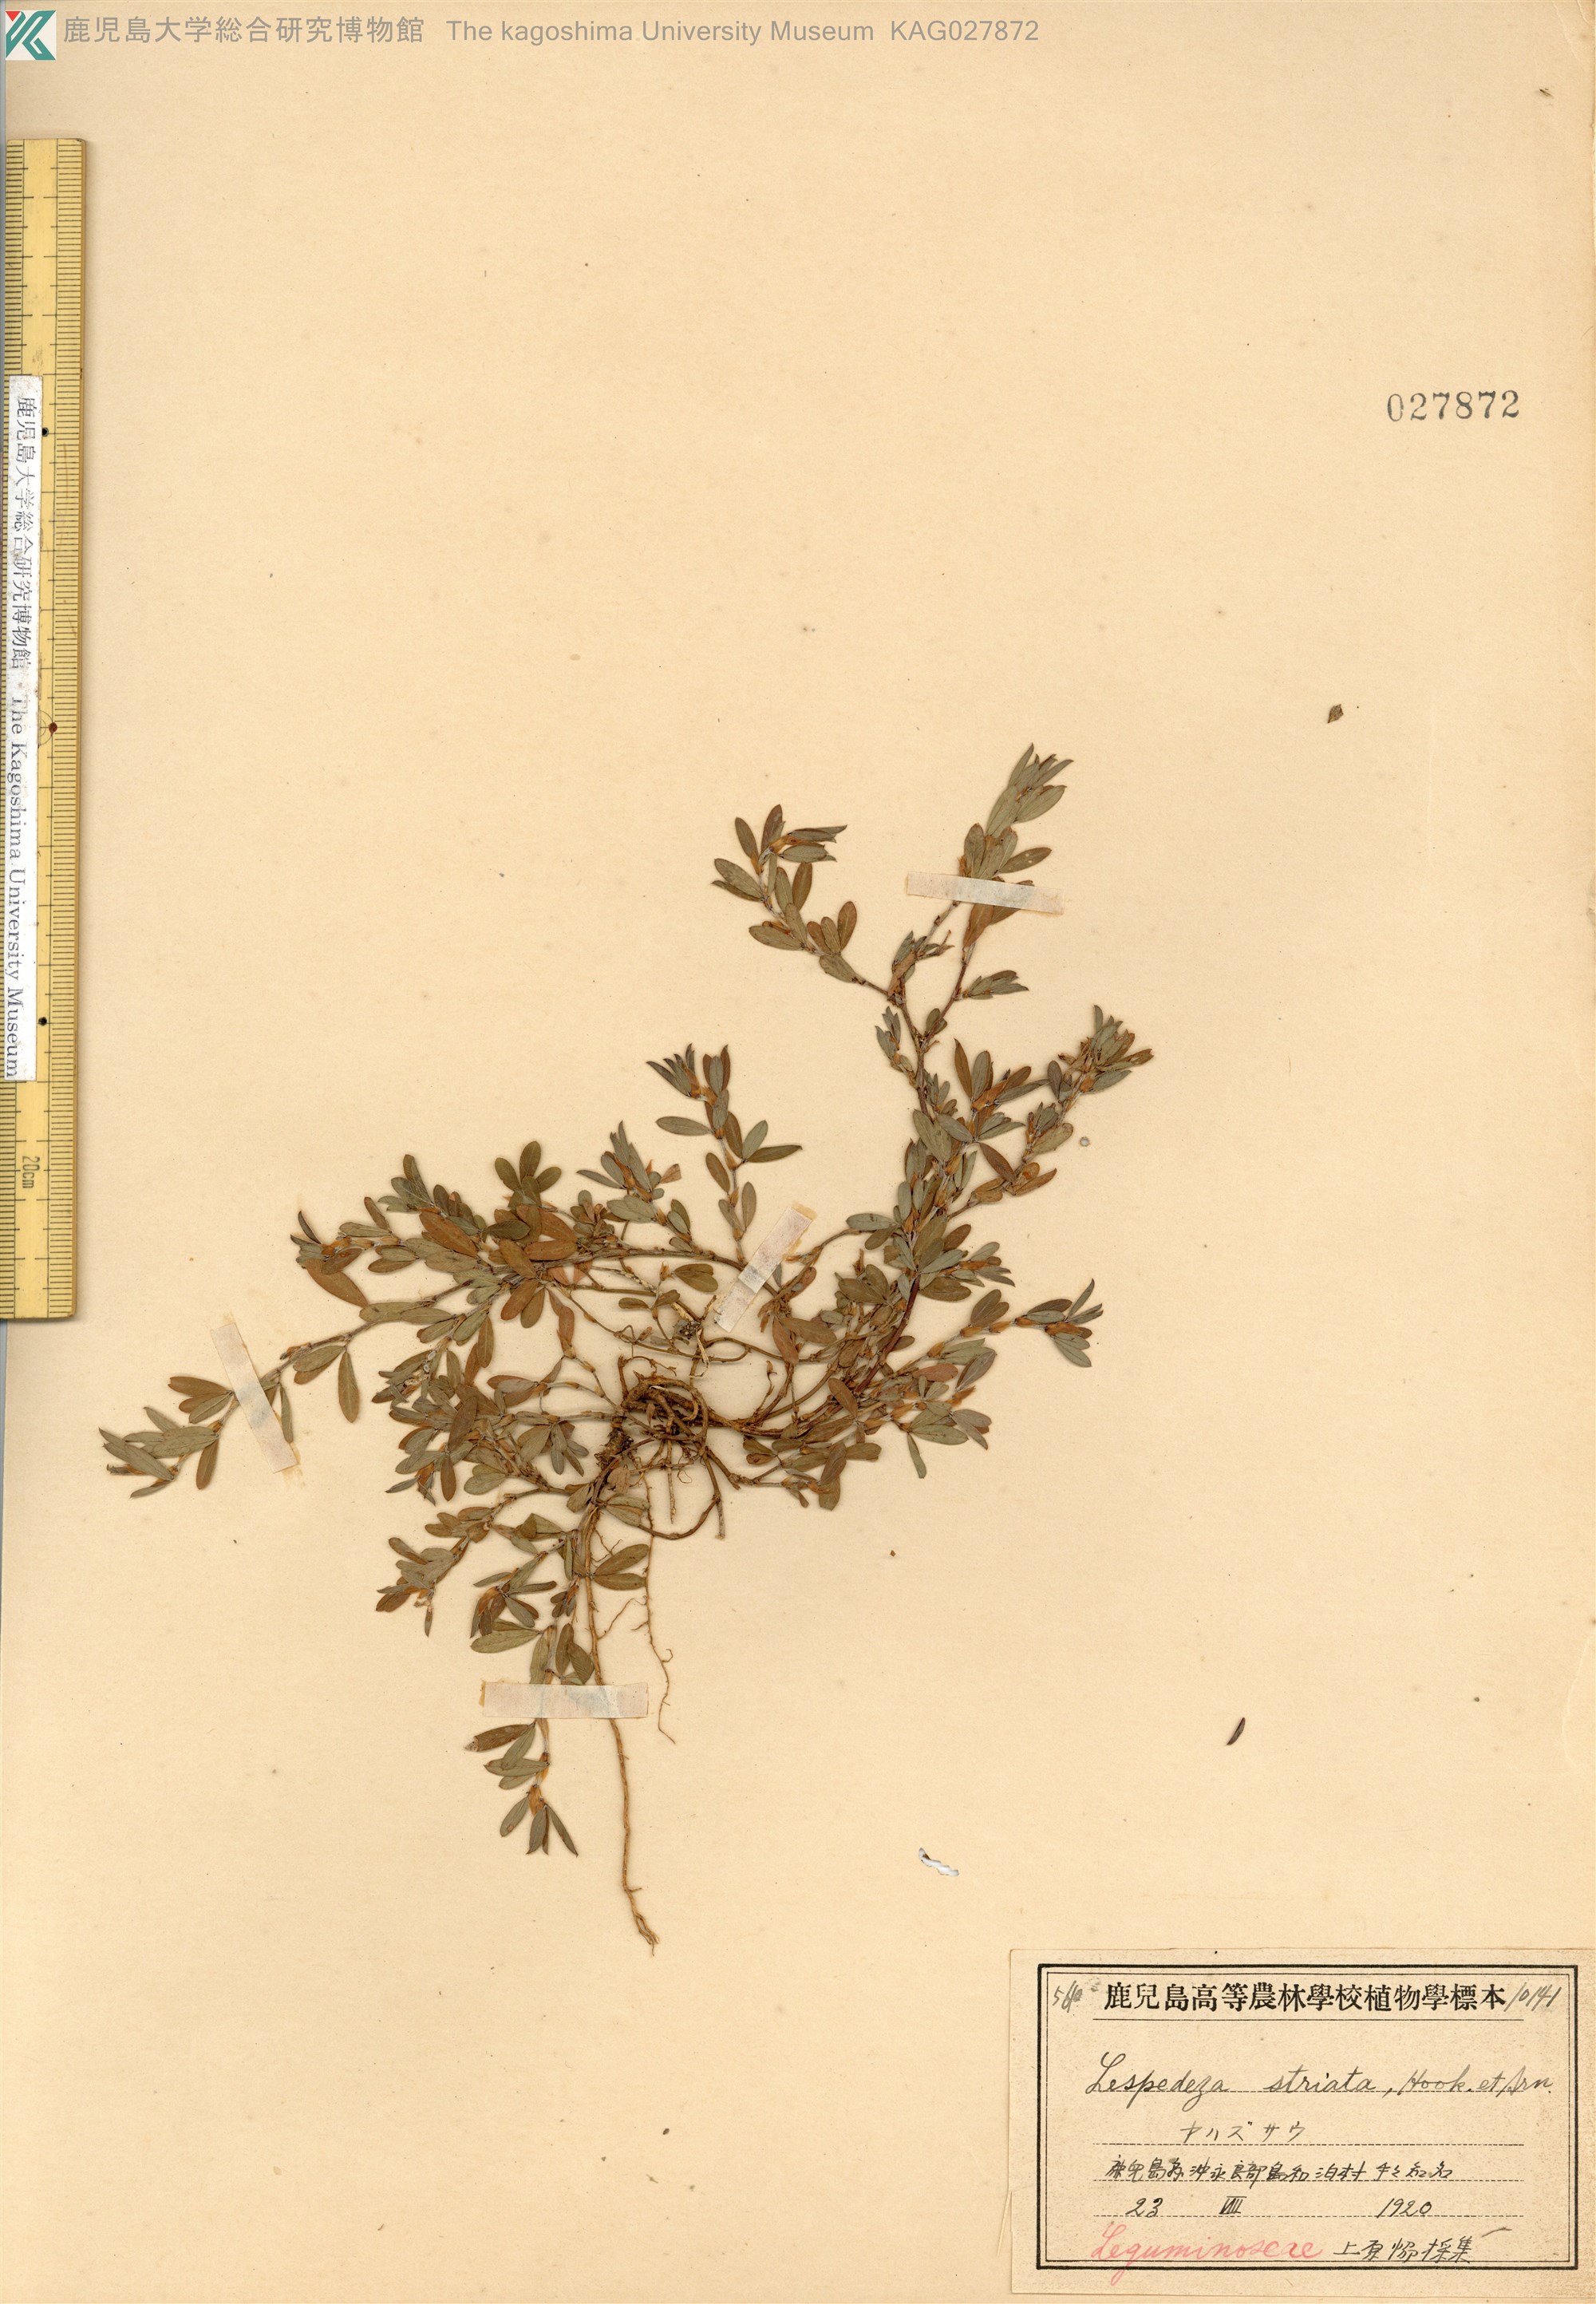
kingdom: Plantae
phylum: Tracheophyta
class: Magnoliopsida
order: Fabales
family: Fabaceae
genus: Kummerowia
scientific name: Kummerowia striata
